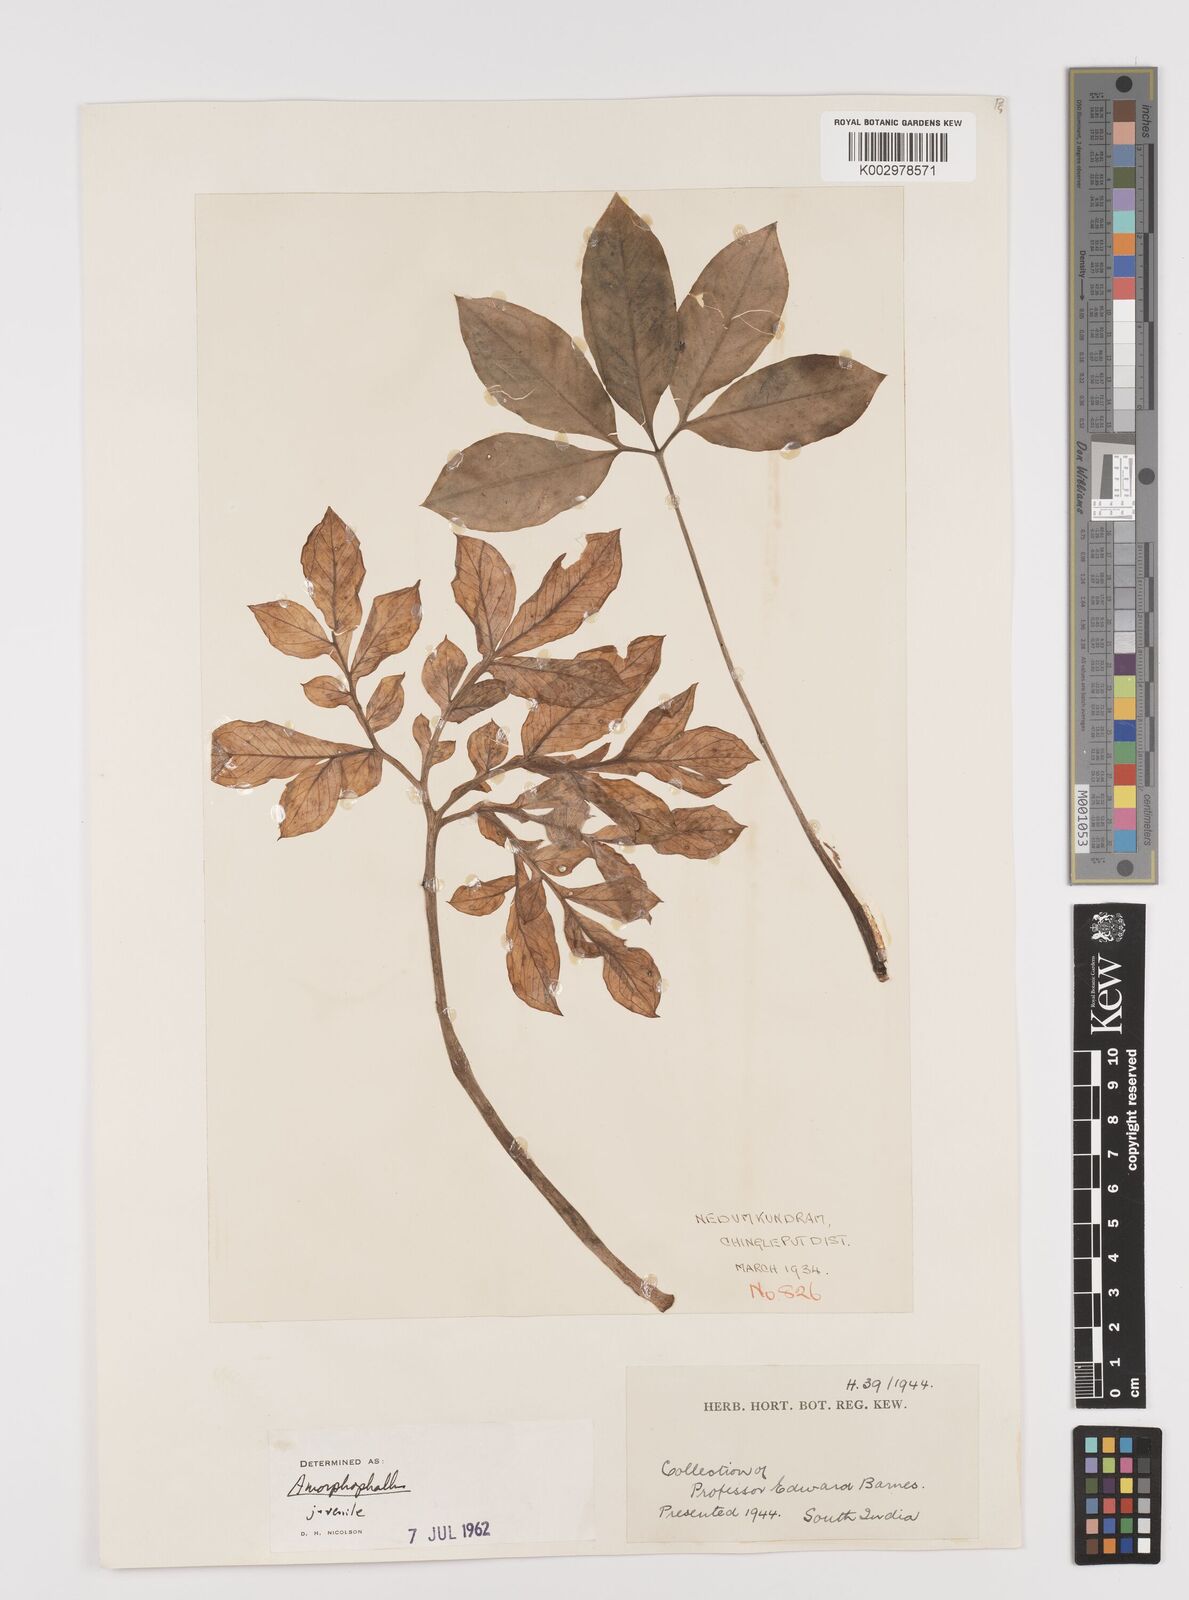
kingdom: Plantae
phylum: Tracheophyta
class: Liliopsida
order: Alismatales
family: Araceae
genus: Amorphophallus
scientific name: Amorphophallus
